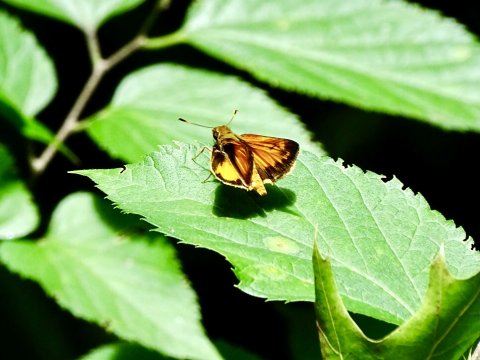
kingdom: Animalia
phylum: Arthropoda
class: Insecta
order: Lepidoptera
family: Hesperiidae
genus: Lon
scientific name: Lon zabulon
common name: Zabulon Skipper
